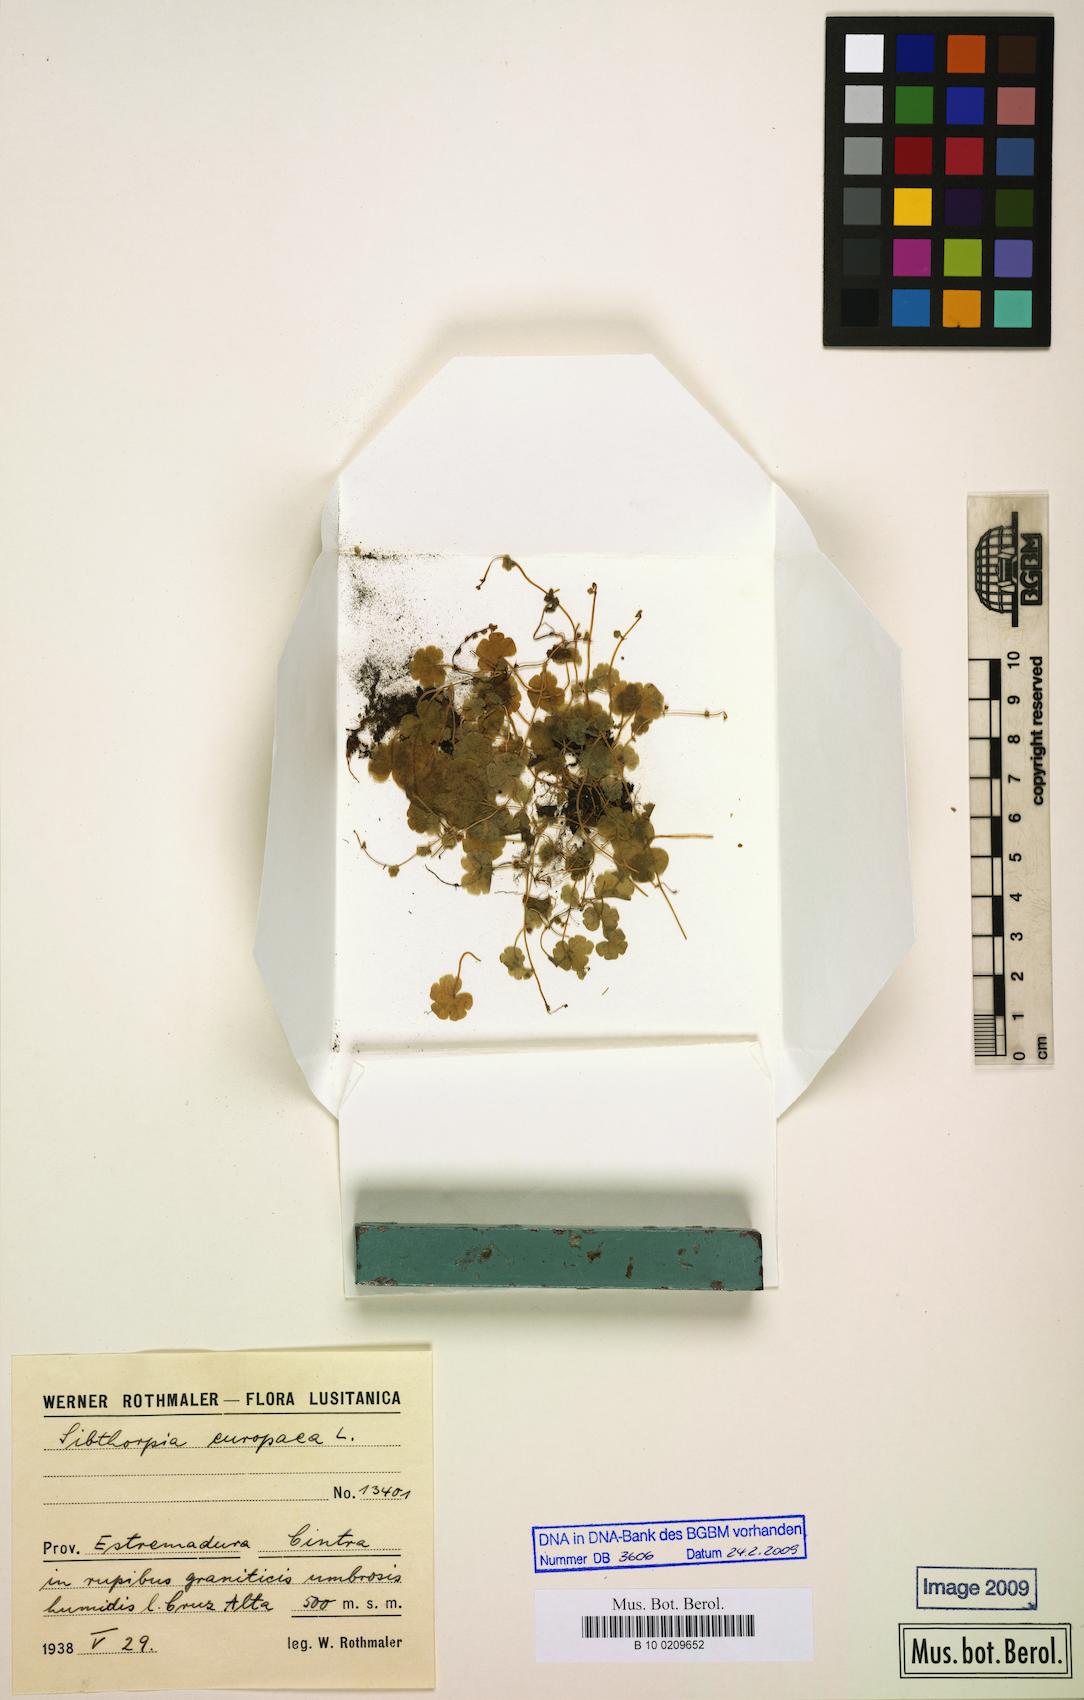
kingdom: Plantae
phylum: Tracheophyta
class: Magnoliopsida
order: Lamiales
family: Plantaginaceae
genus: Sibthorpia
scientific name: Sibthorpia europaea
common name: Cornish moneywort
